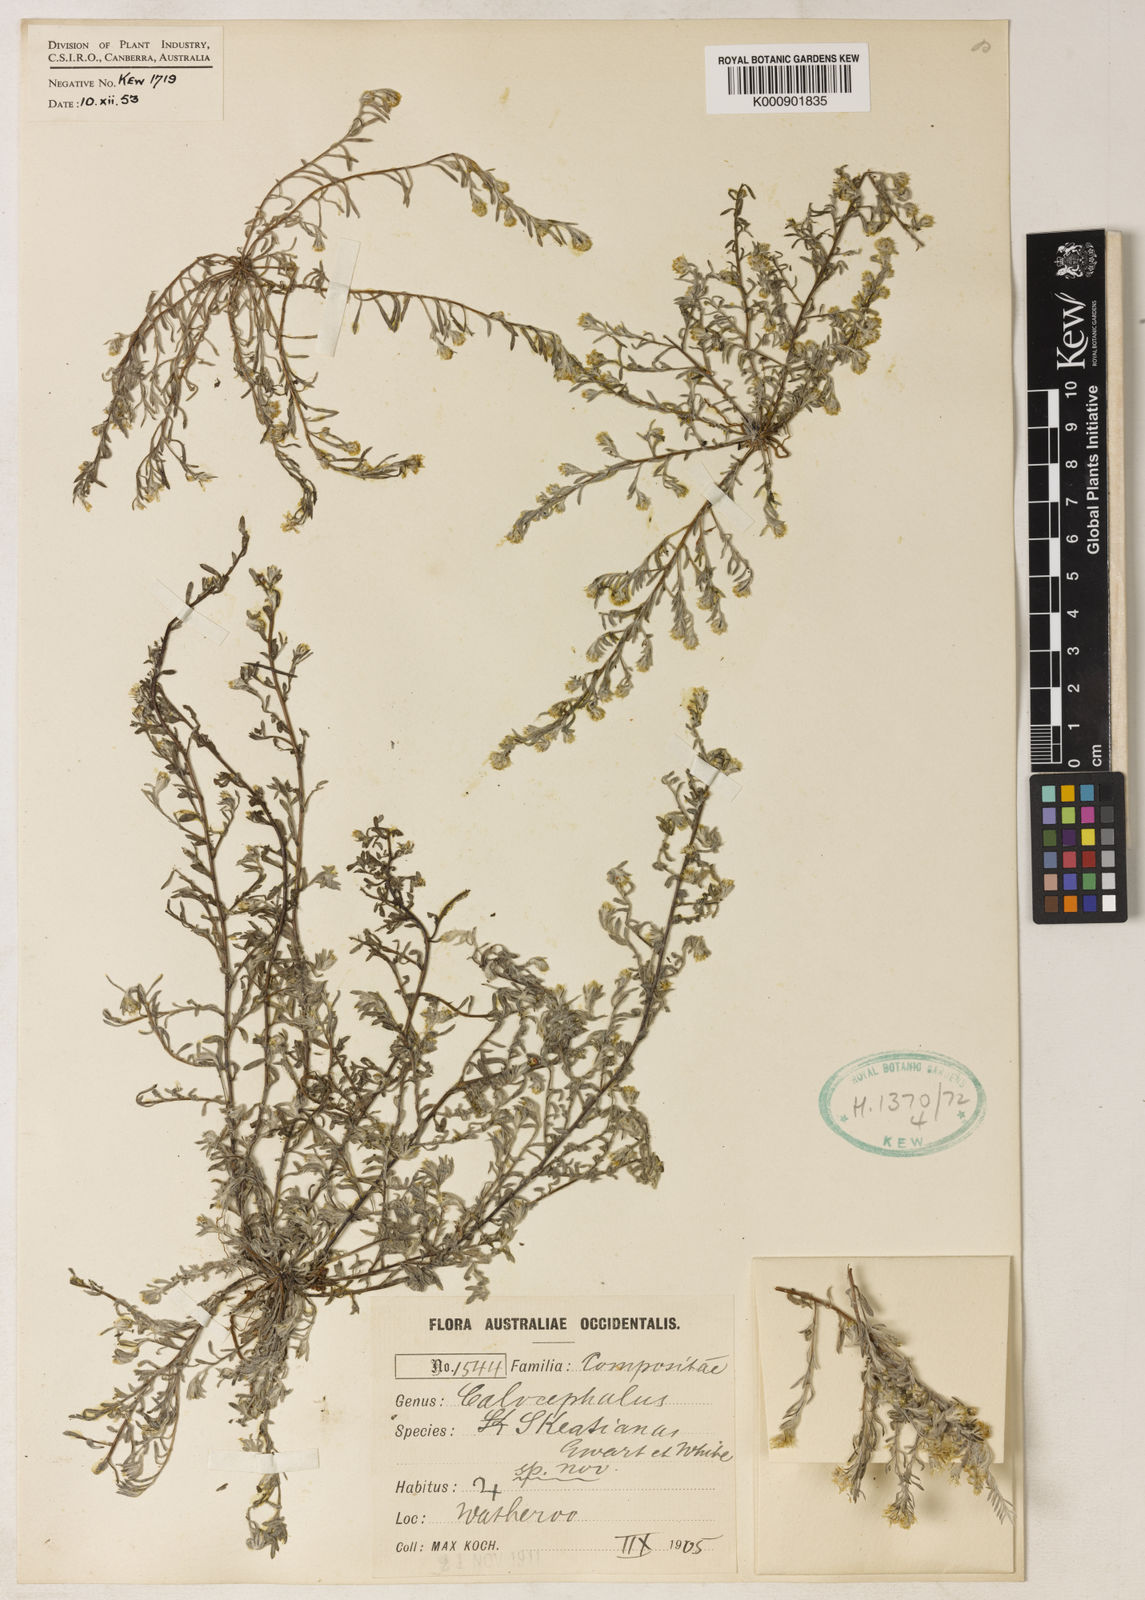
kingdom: Plantae
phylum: Tracheophyta
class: Magnoliopsida
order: Asterales
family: Asteraceae
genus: Calocephalus
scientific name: Calocephalus skeatsiana
